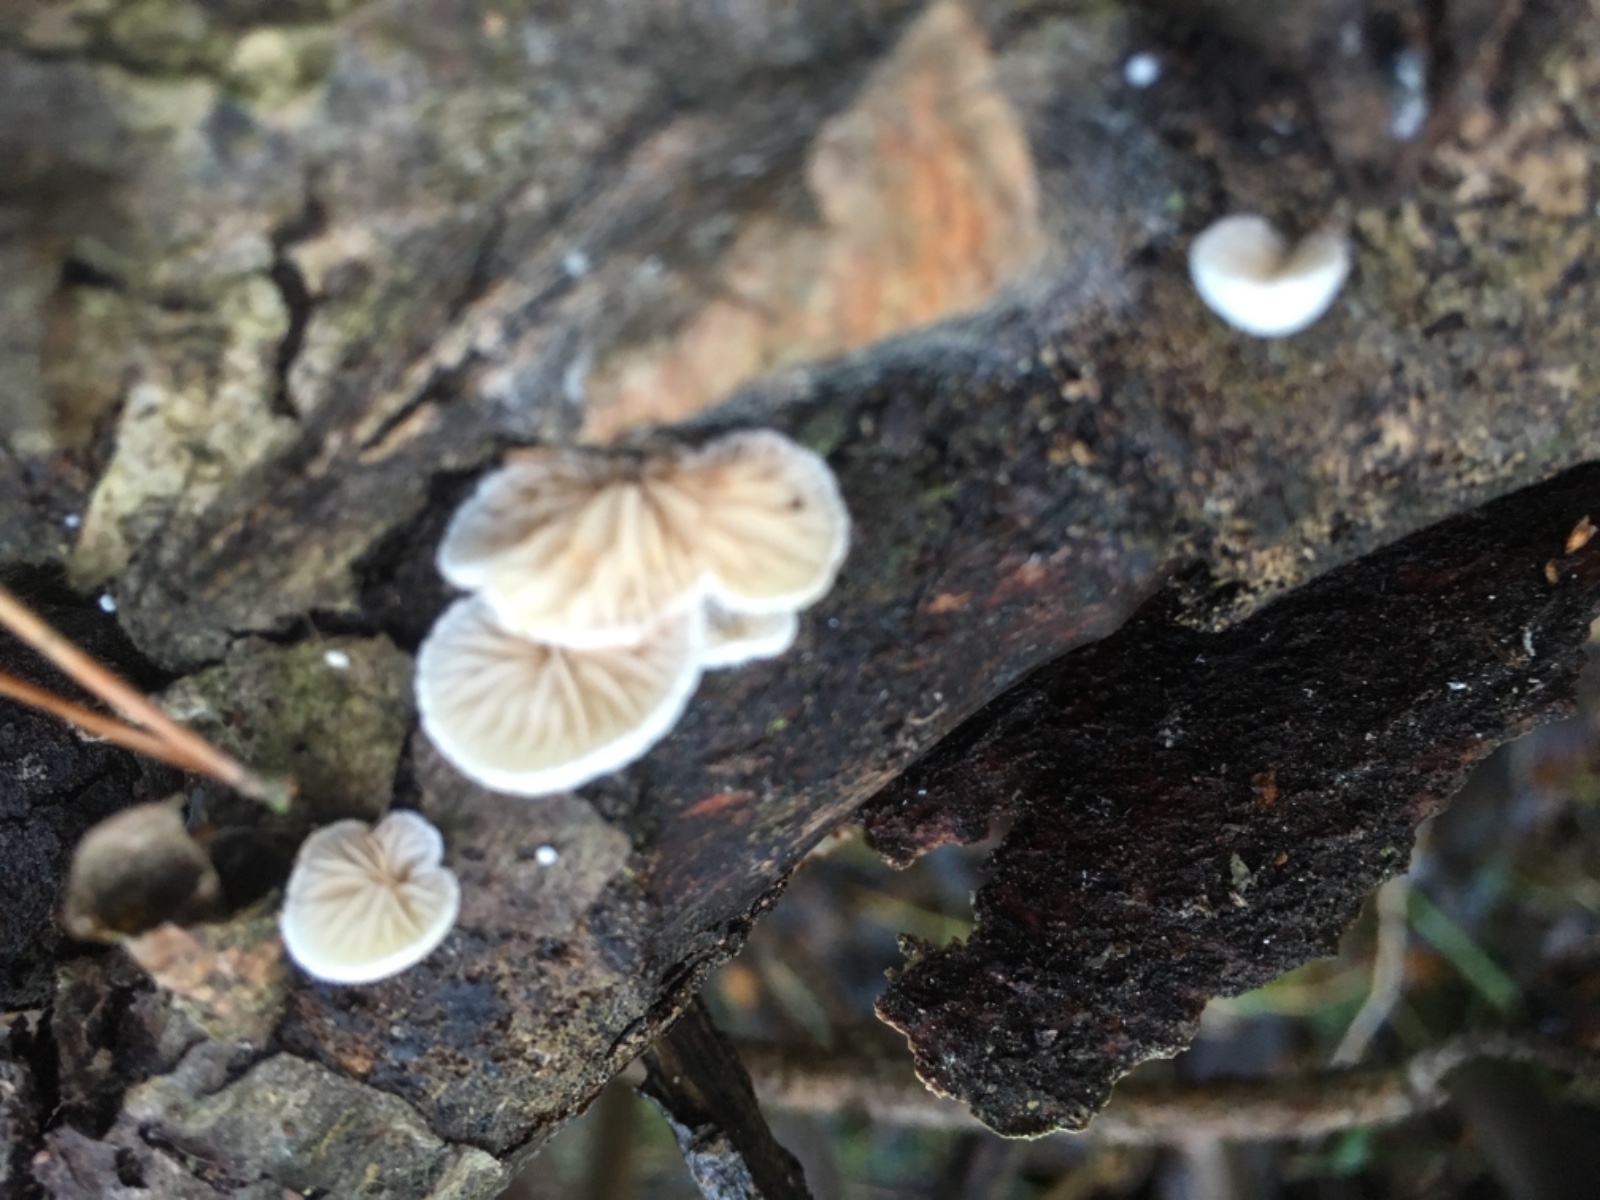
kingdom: Fungi
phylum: Basidiomycota
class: Agaricomycetes
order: Agaricales
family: Crepidotaceae
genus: Crepidotus
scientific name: Crepidotus
